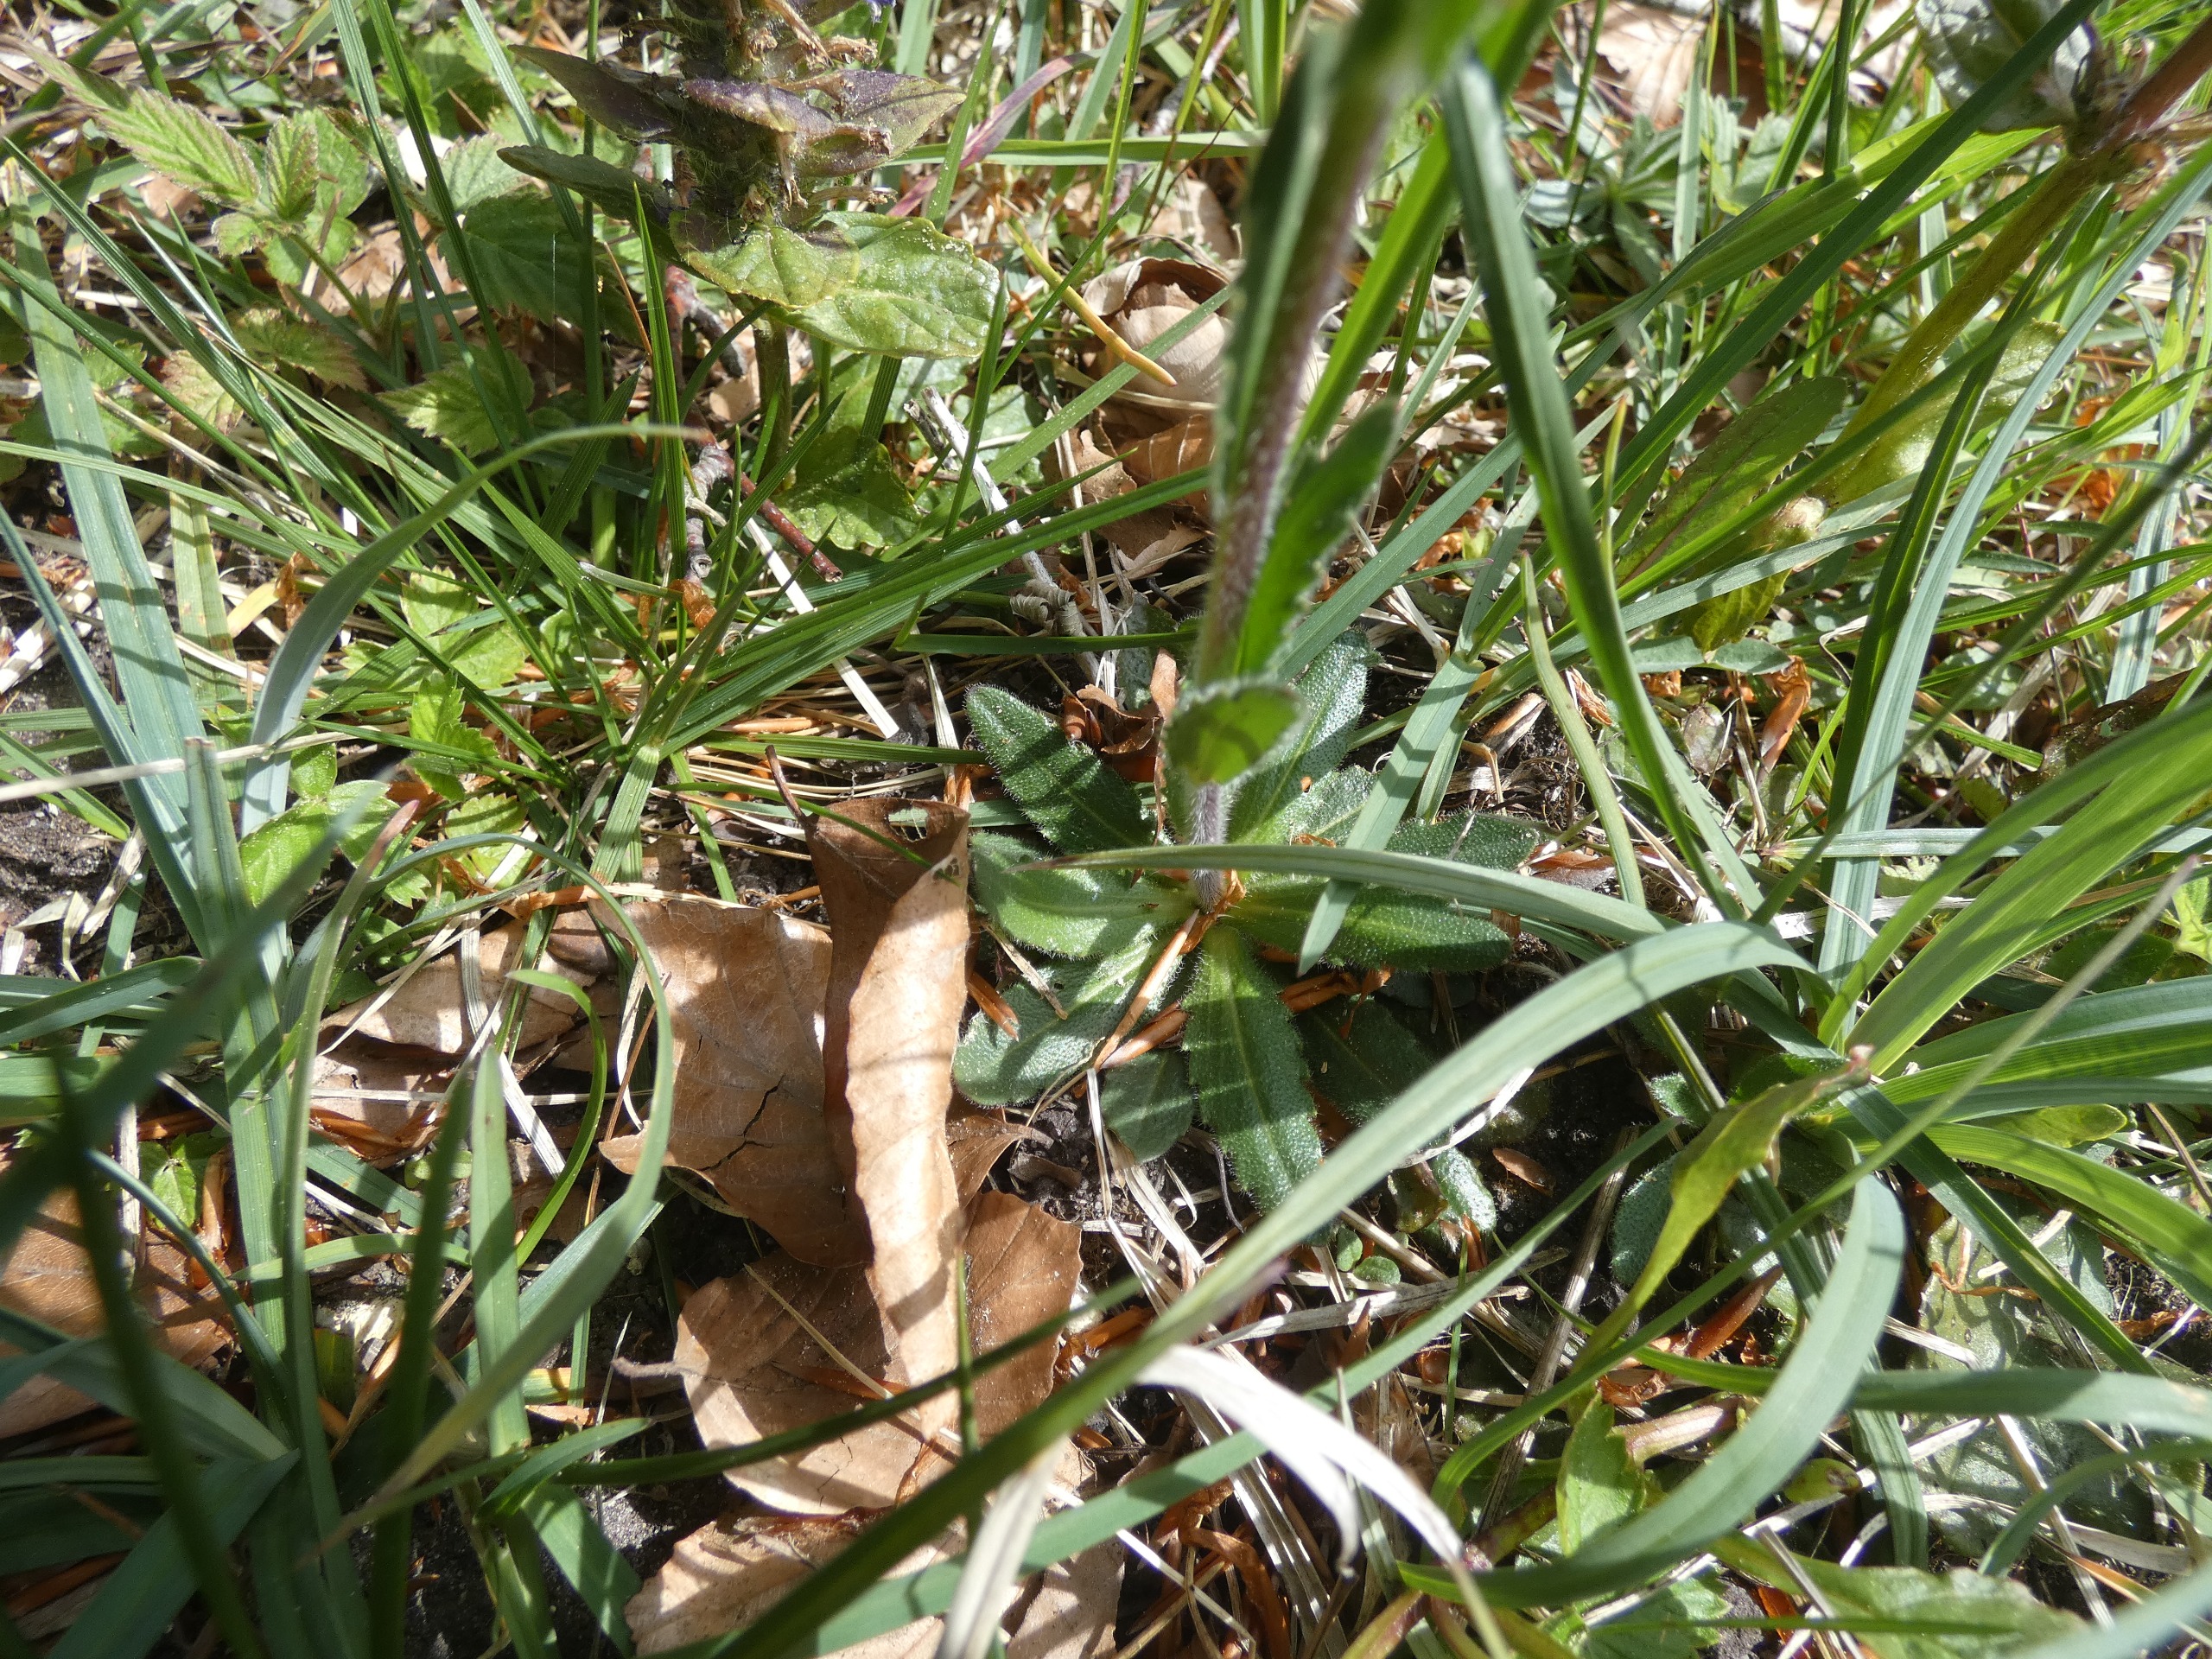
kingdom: Plantae
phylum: Tracheophyta
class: Magnoliopsida
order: Brassicales
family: Brassicaceae
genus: Arabis
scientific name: Arabis hirsuta
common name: Stivhåret kalkkarse
